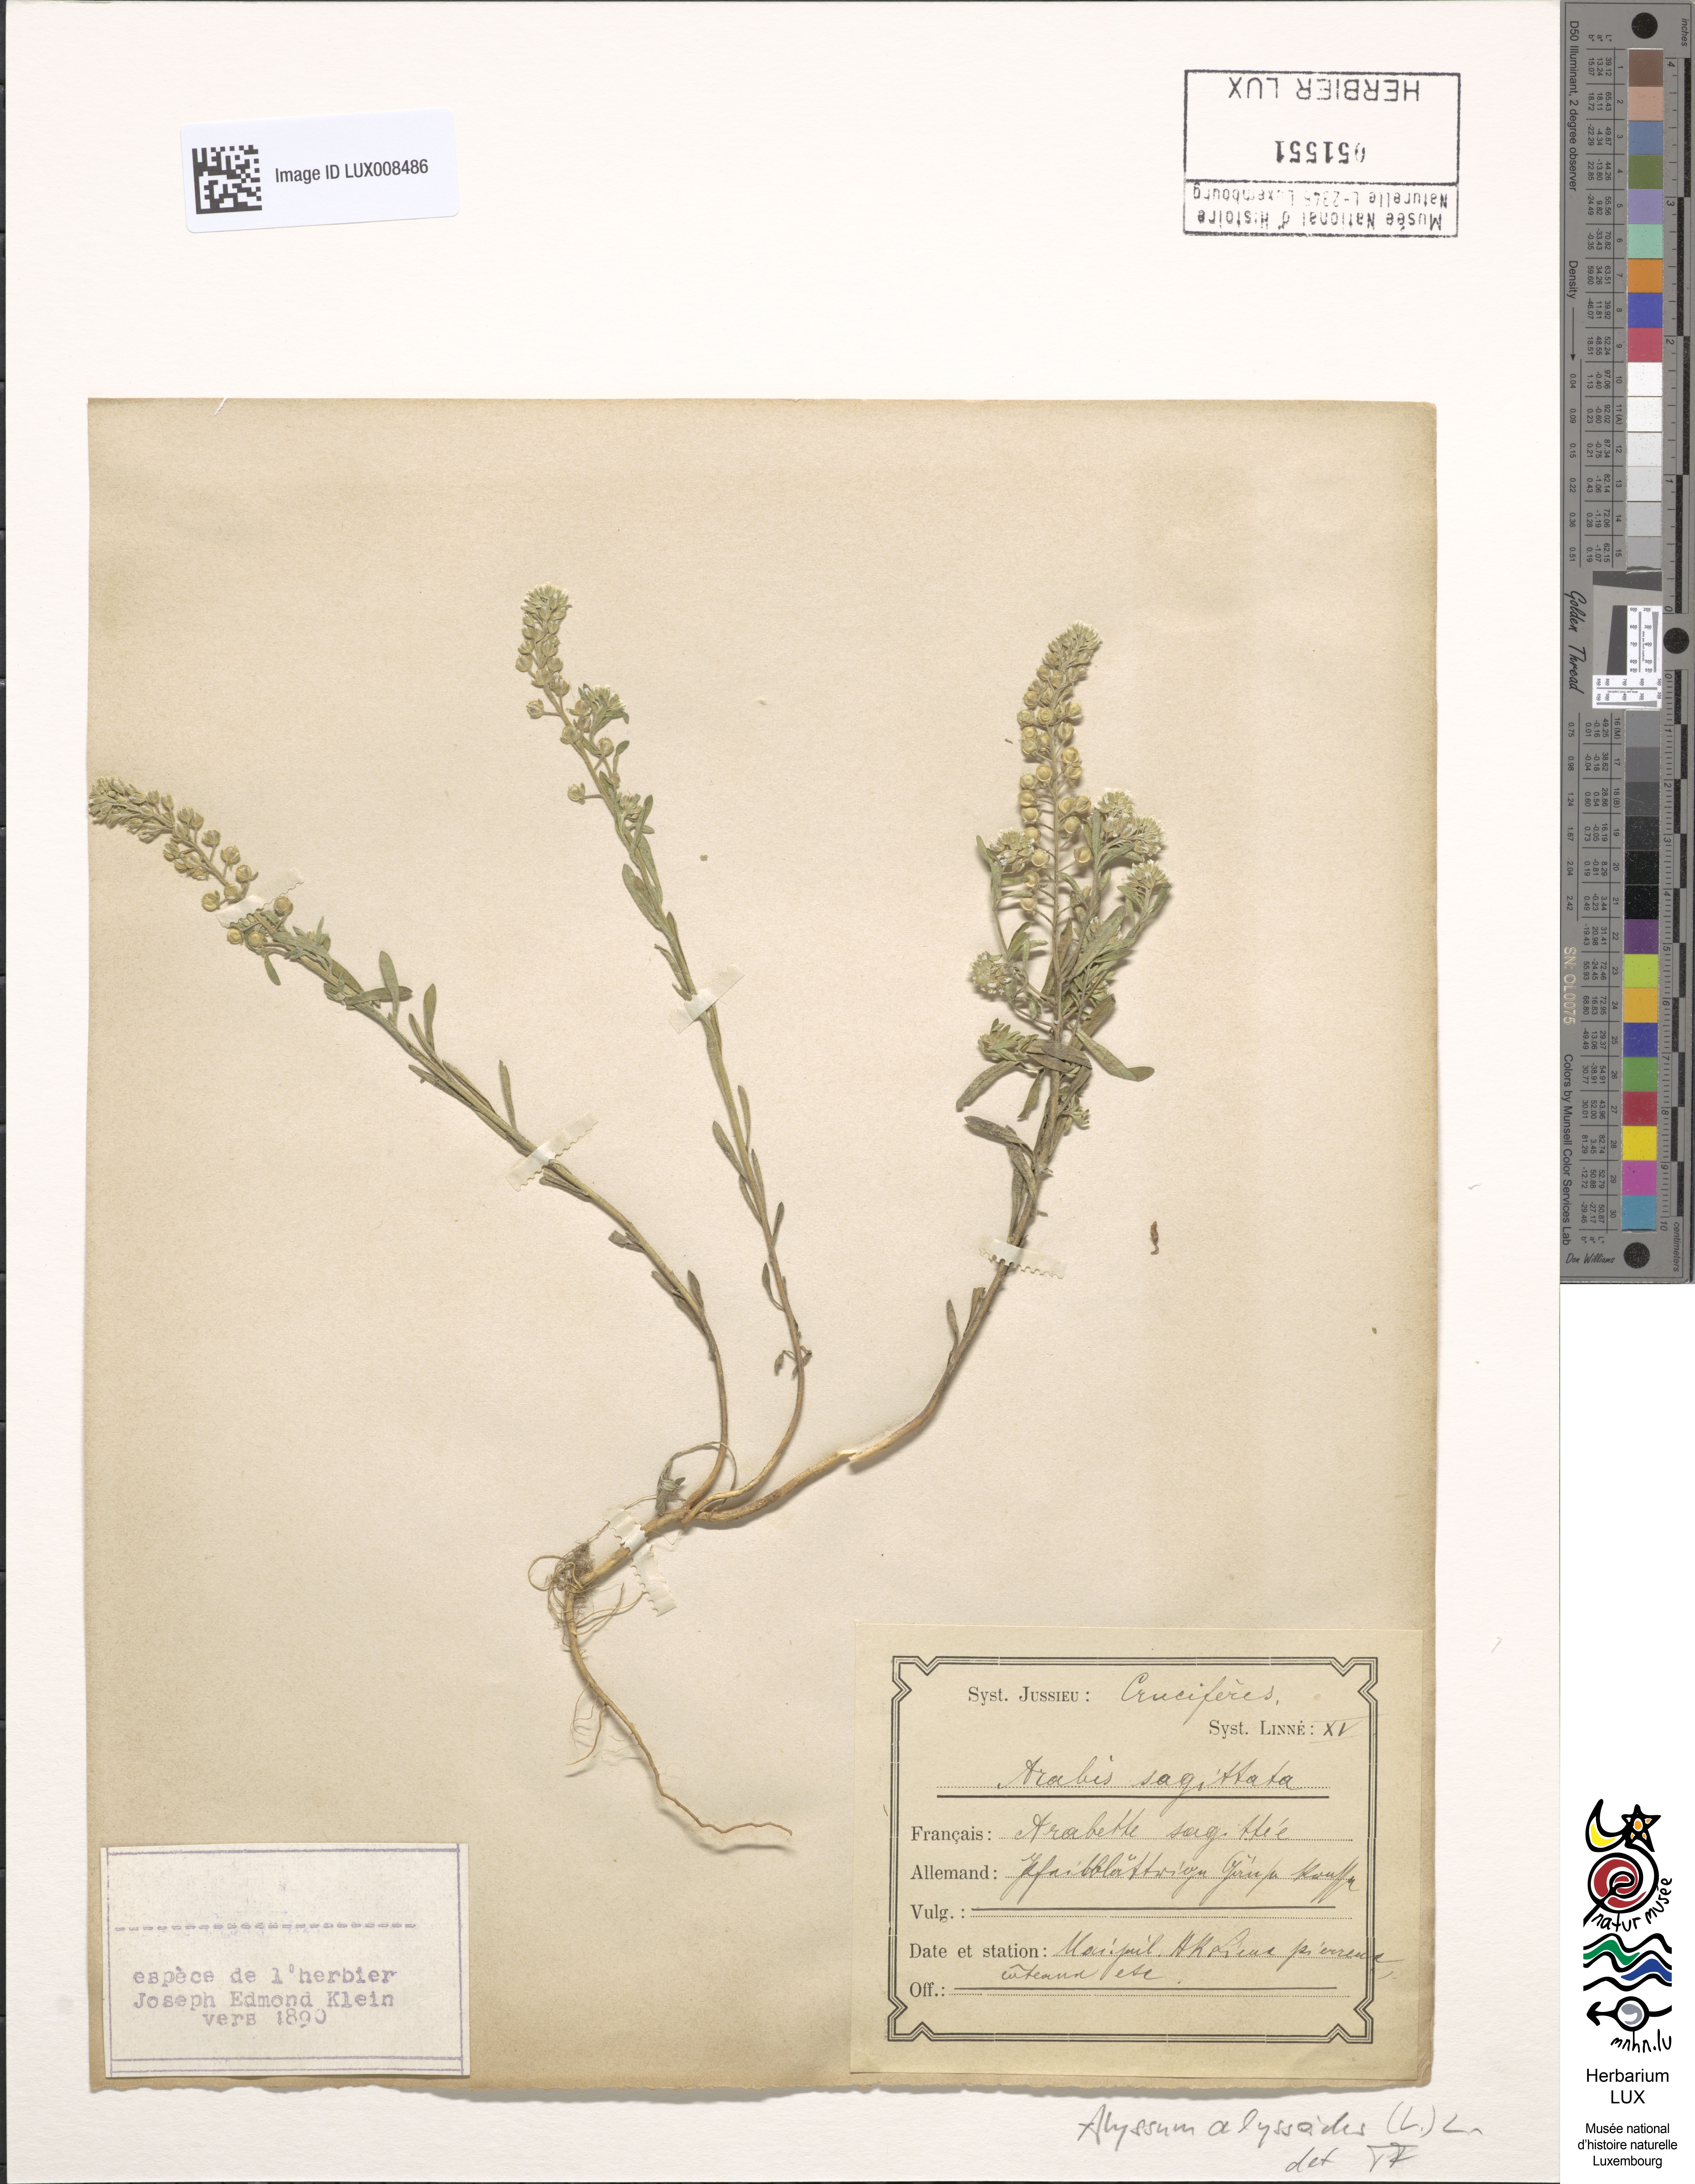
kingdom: Plantae
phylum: Tracheophyta
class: Magnoliopsida
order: Brassicales
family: Brassicaceae
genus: Alyssum
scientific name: Alyssum alyssoides
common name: Small alison
